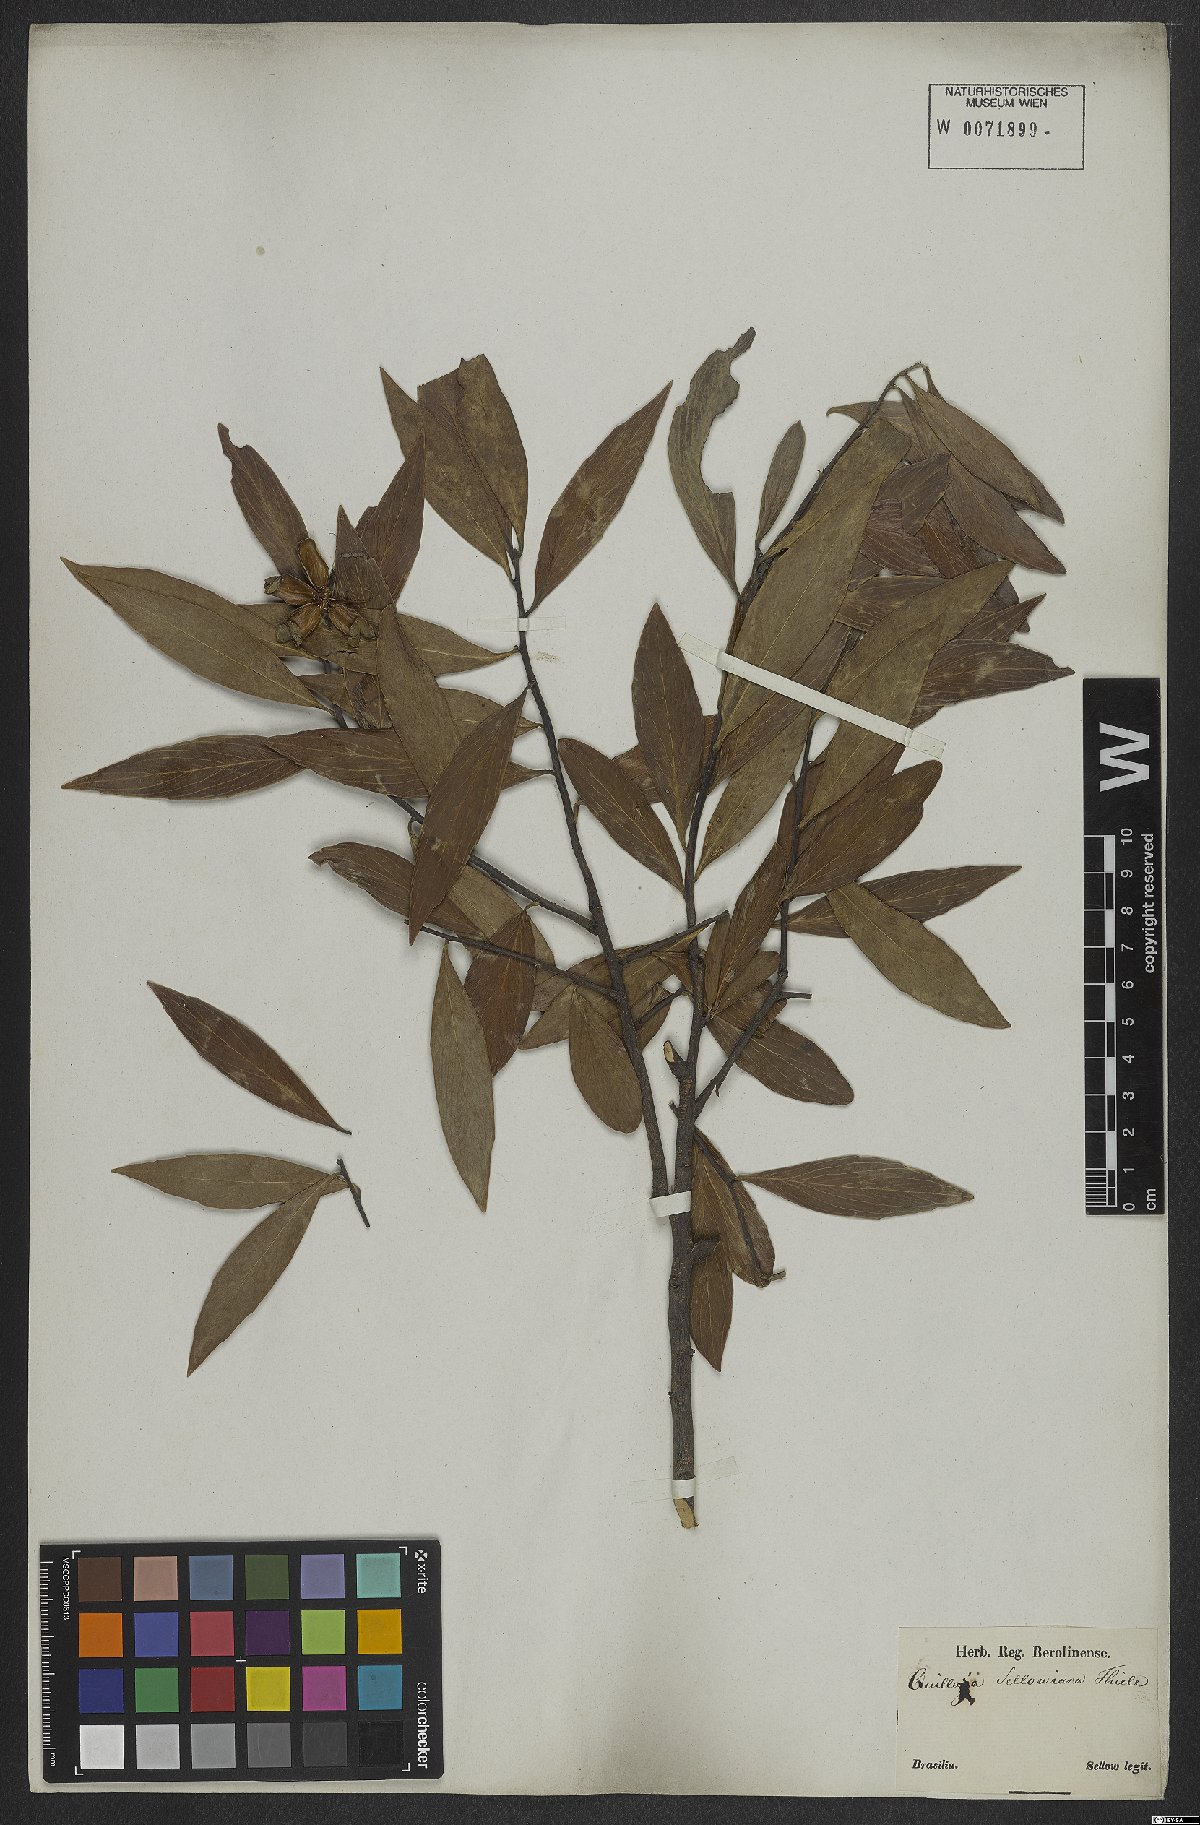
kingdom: Plantae
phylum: Tracheophyta
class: Magnoliopsida
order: Fabales
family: Quillajaceae
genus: Quillaja
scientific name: Quillaja brasiliensis
